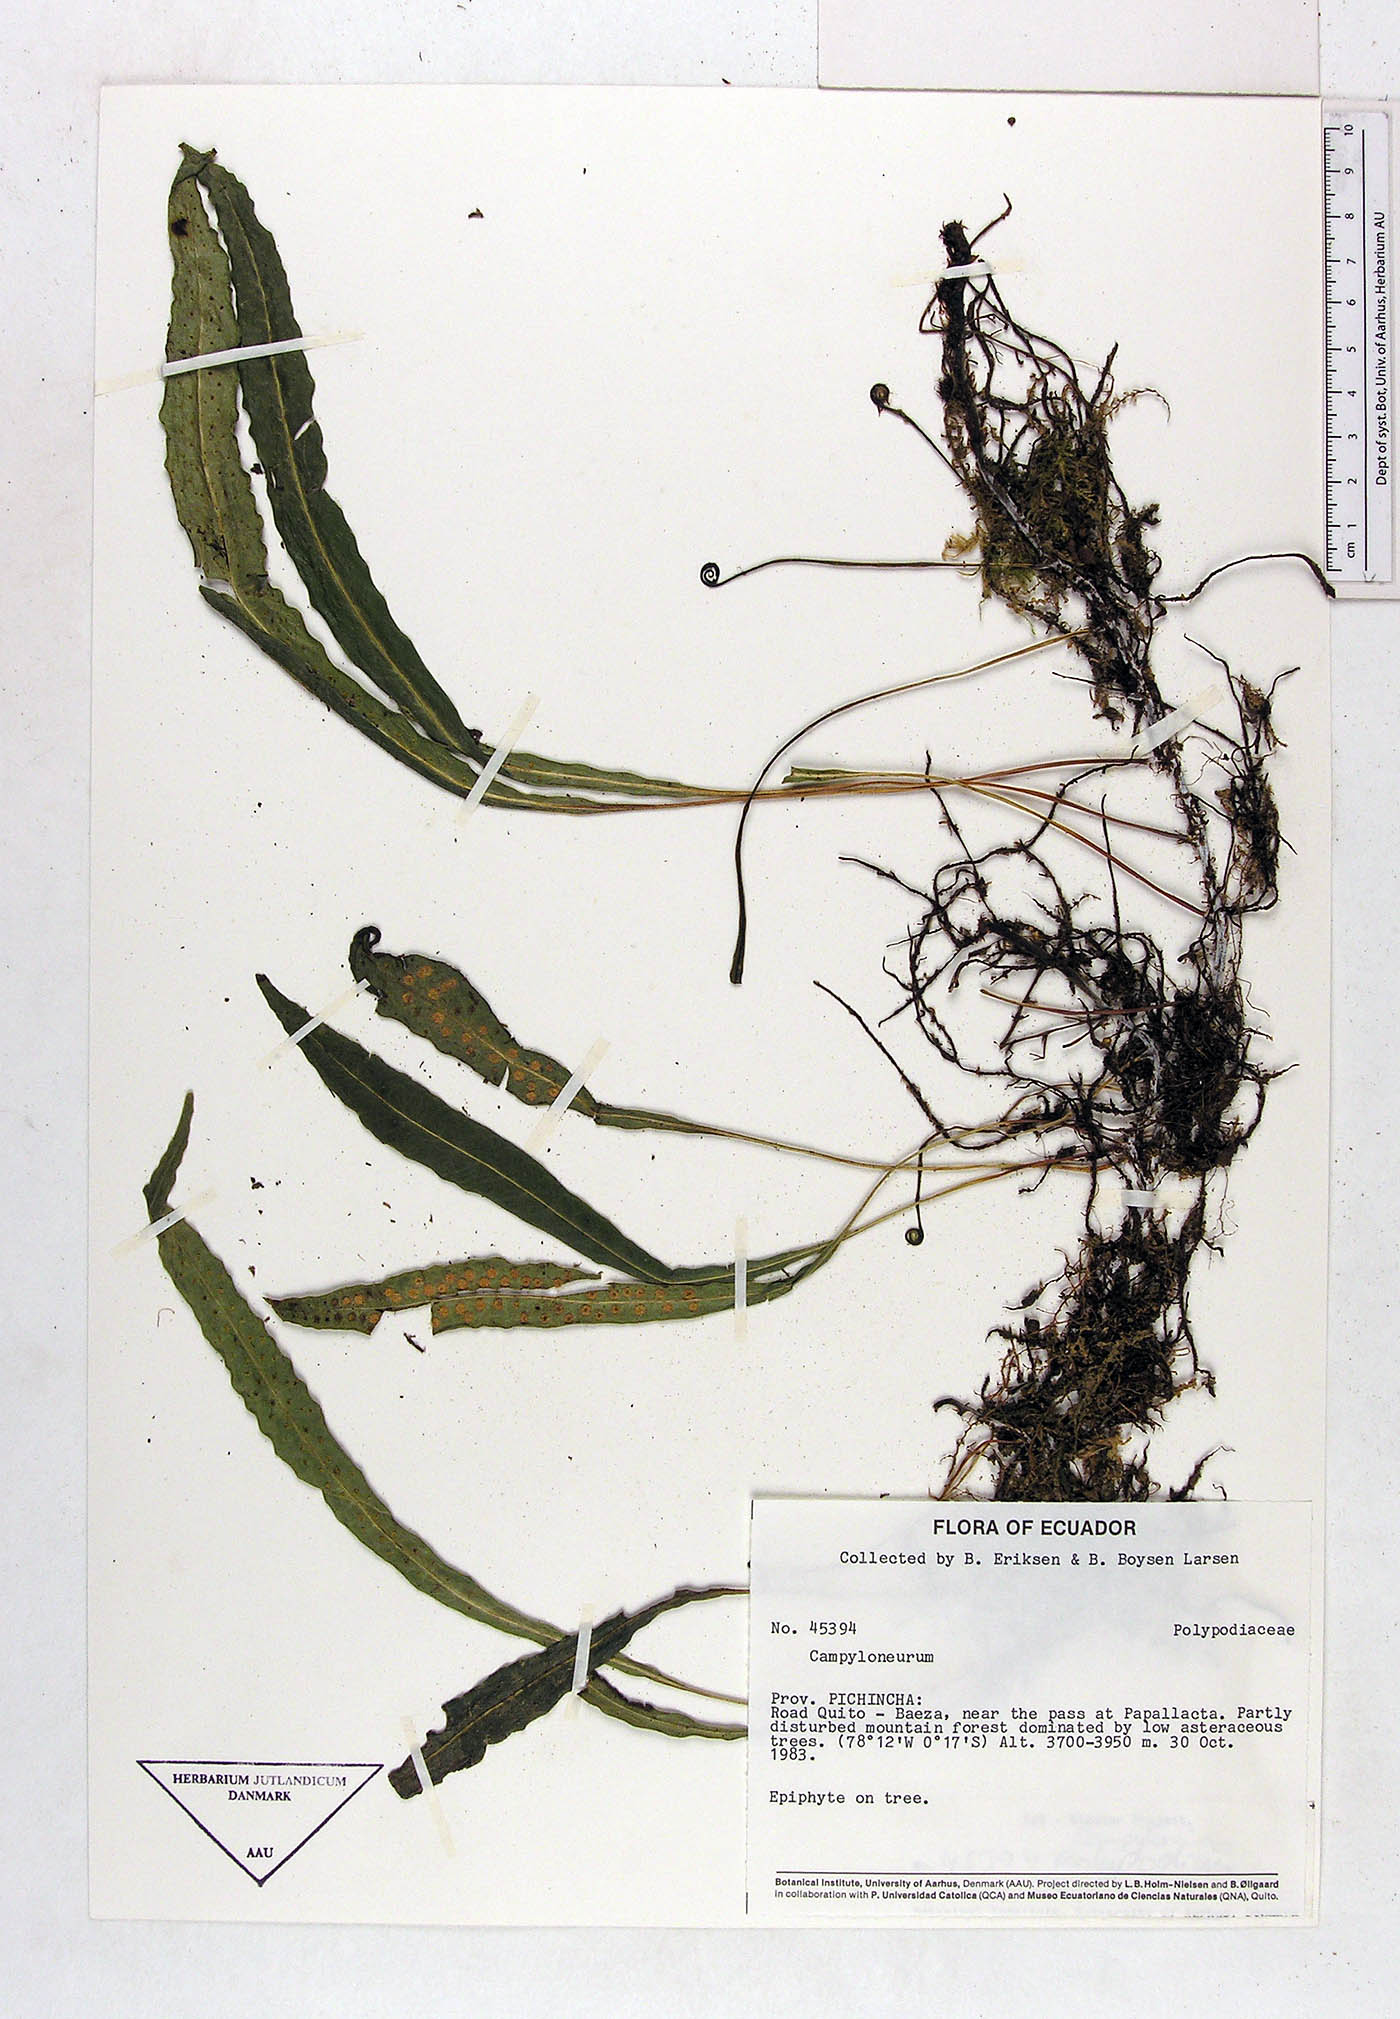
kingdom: Plantae
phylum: Tracheophyta
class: Polypodiopsida
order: Polypodiales
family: Polypodiaceae
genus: Campyloneurum
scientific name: Campyloneurum solutum
